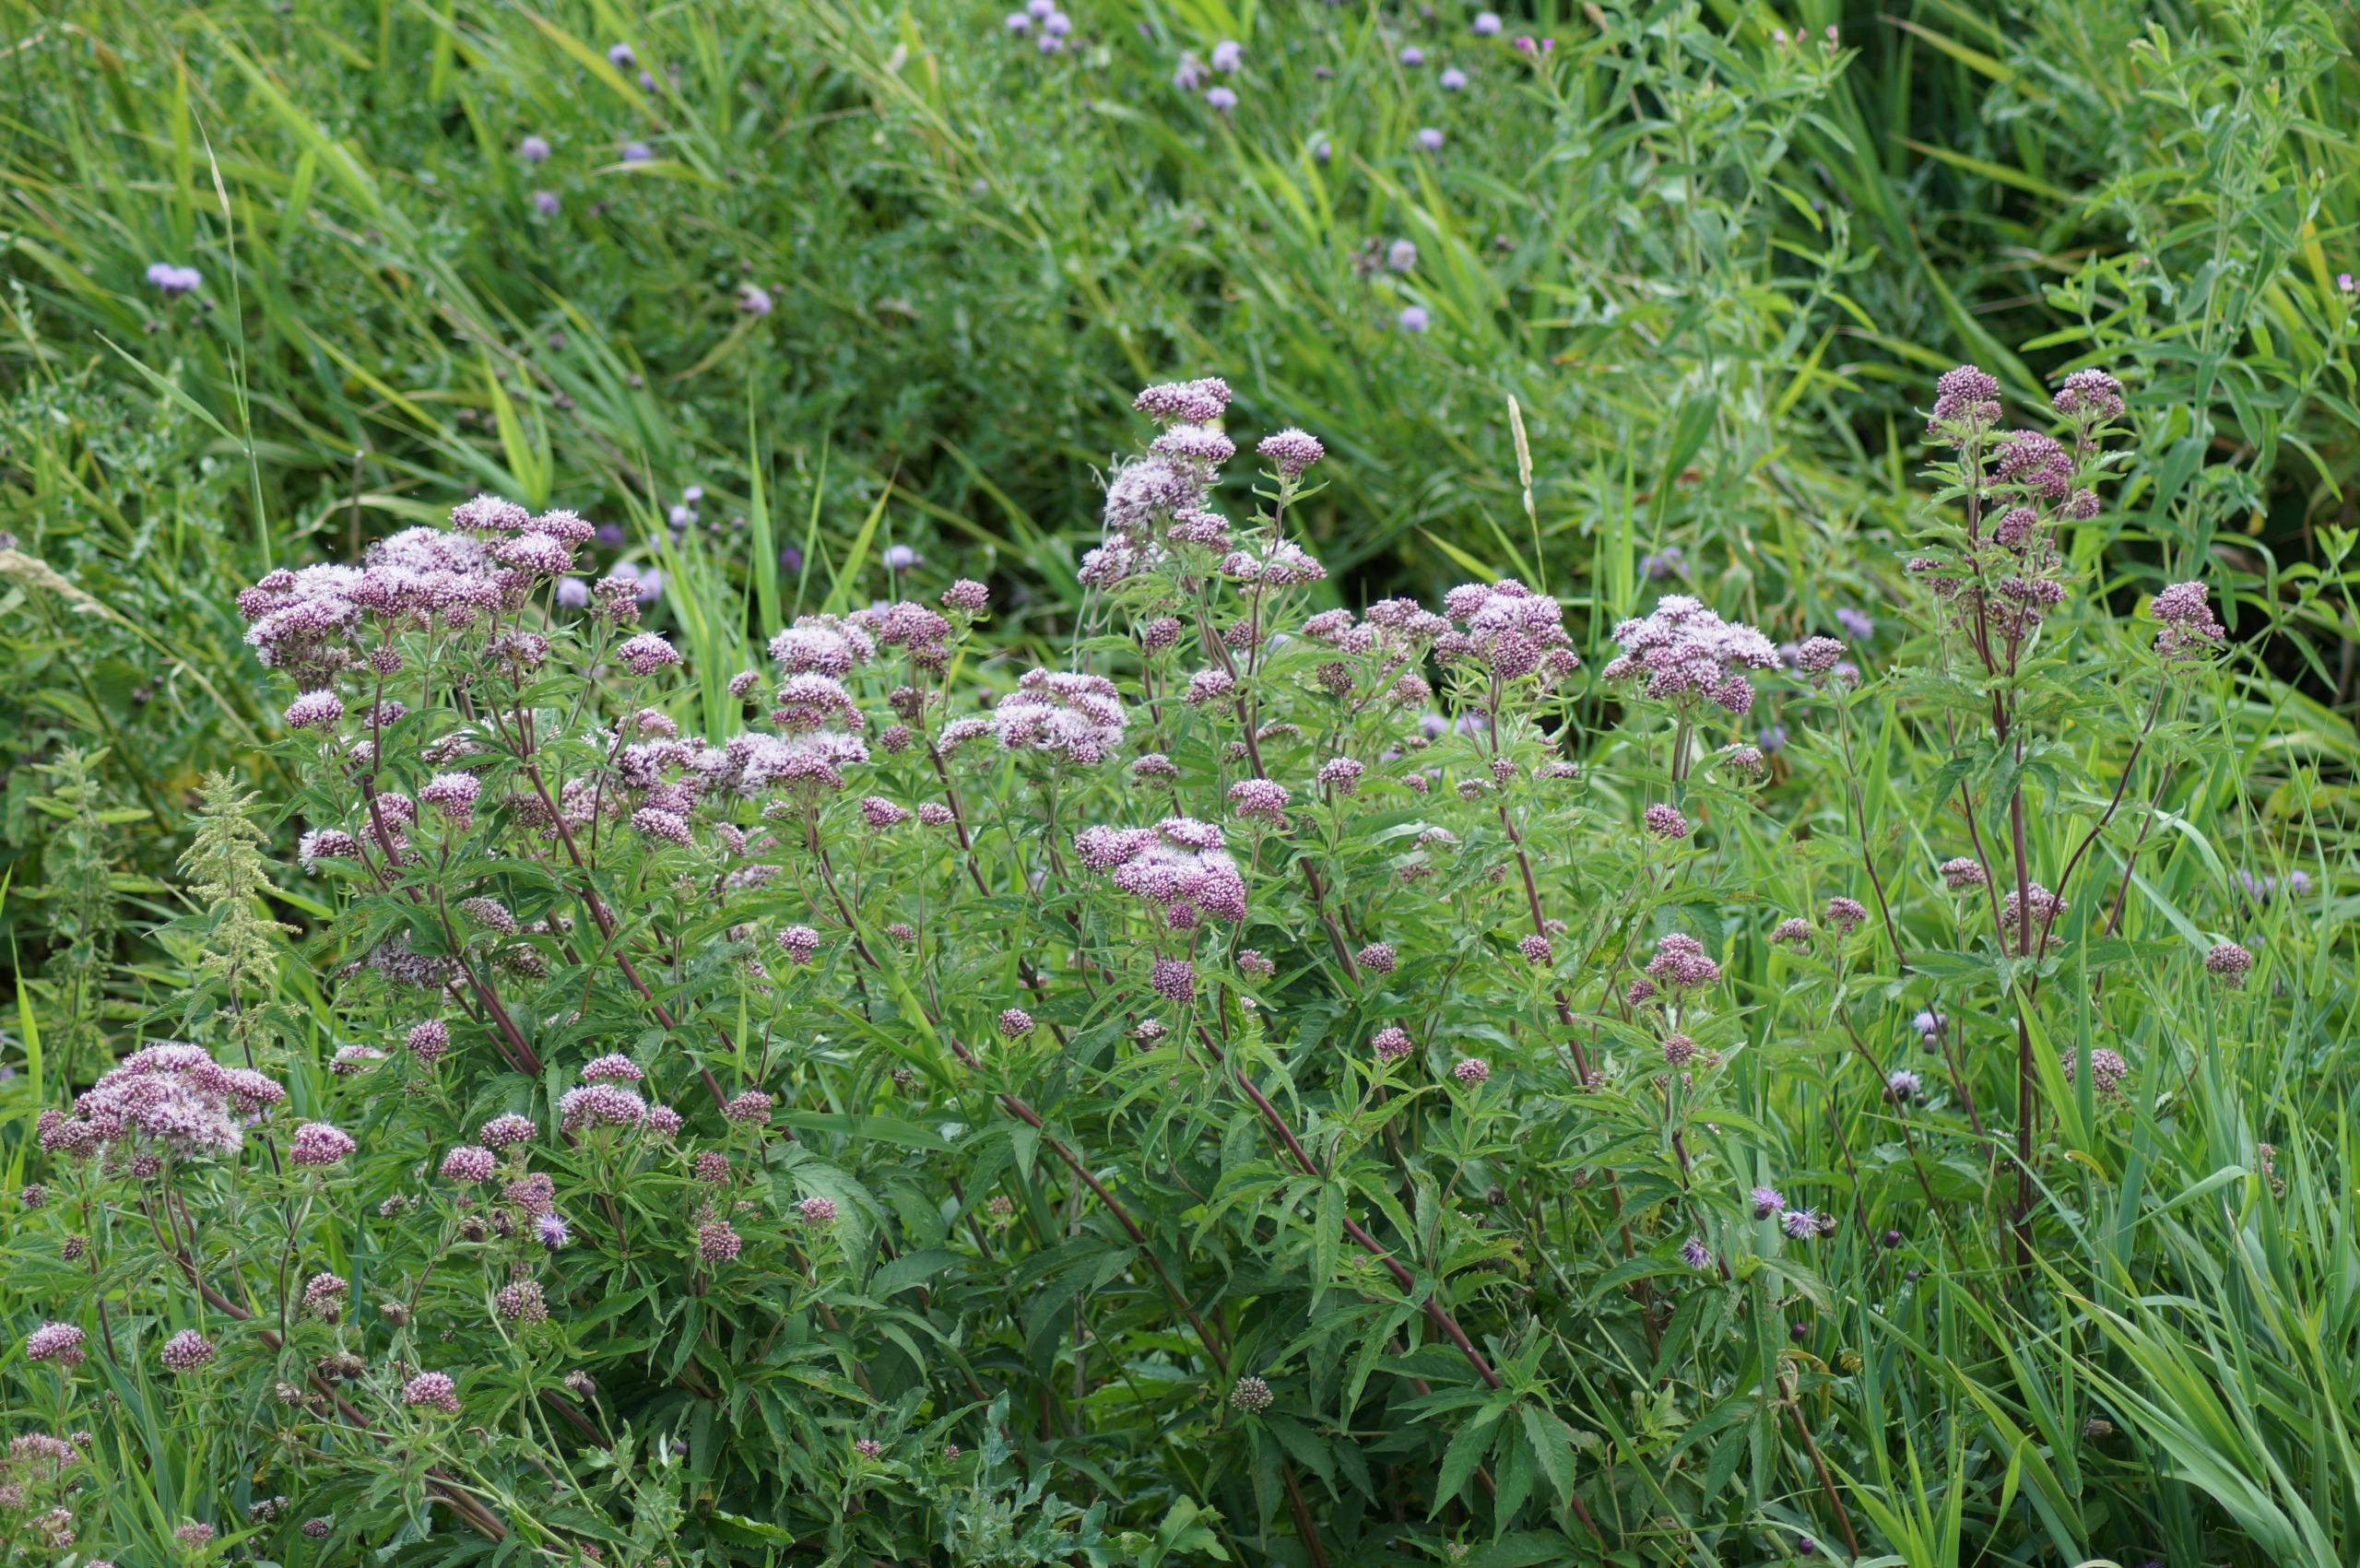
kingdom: Plantae
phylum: Tracheophyta
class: Magnoliopsida
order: Asterales
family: Asteraceae
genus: Eupatorium
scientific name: Eupatorium cannabinum
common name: Hjortetrøst
